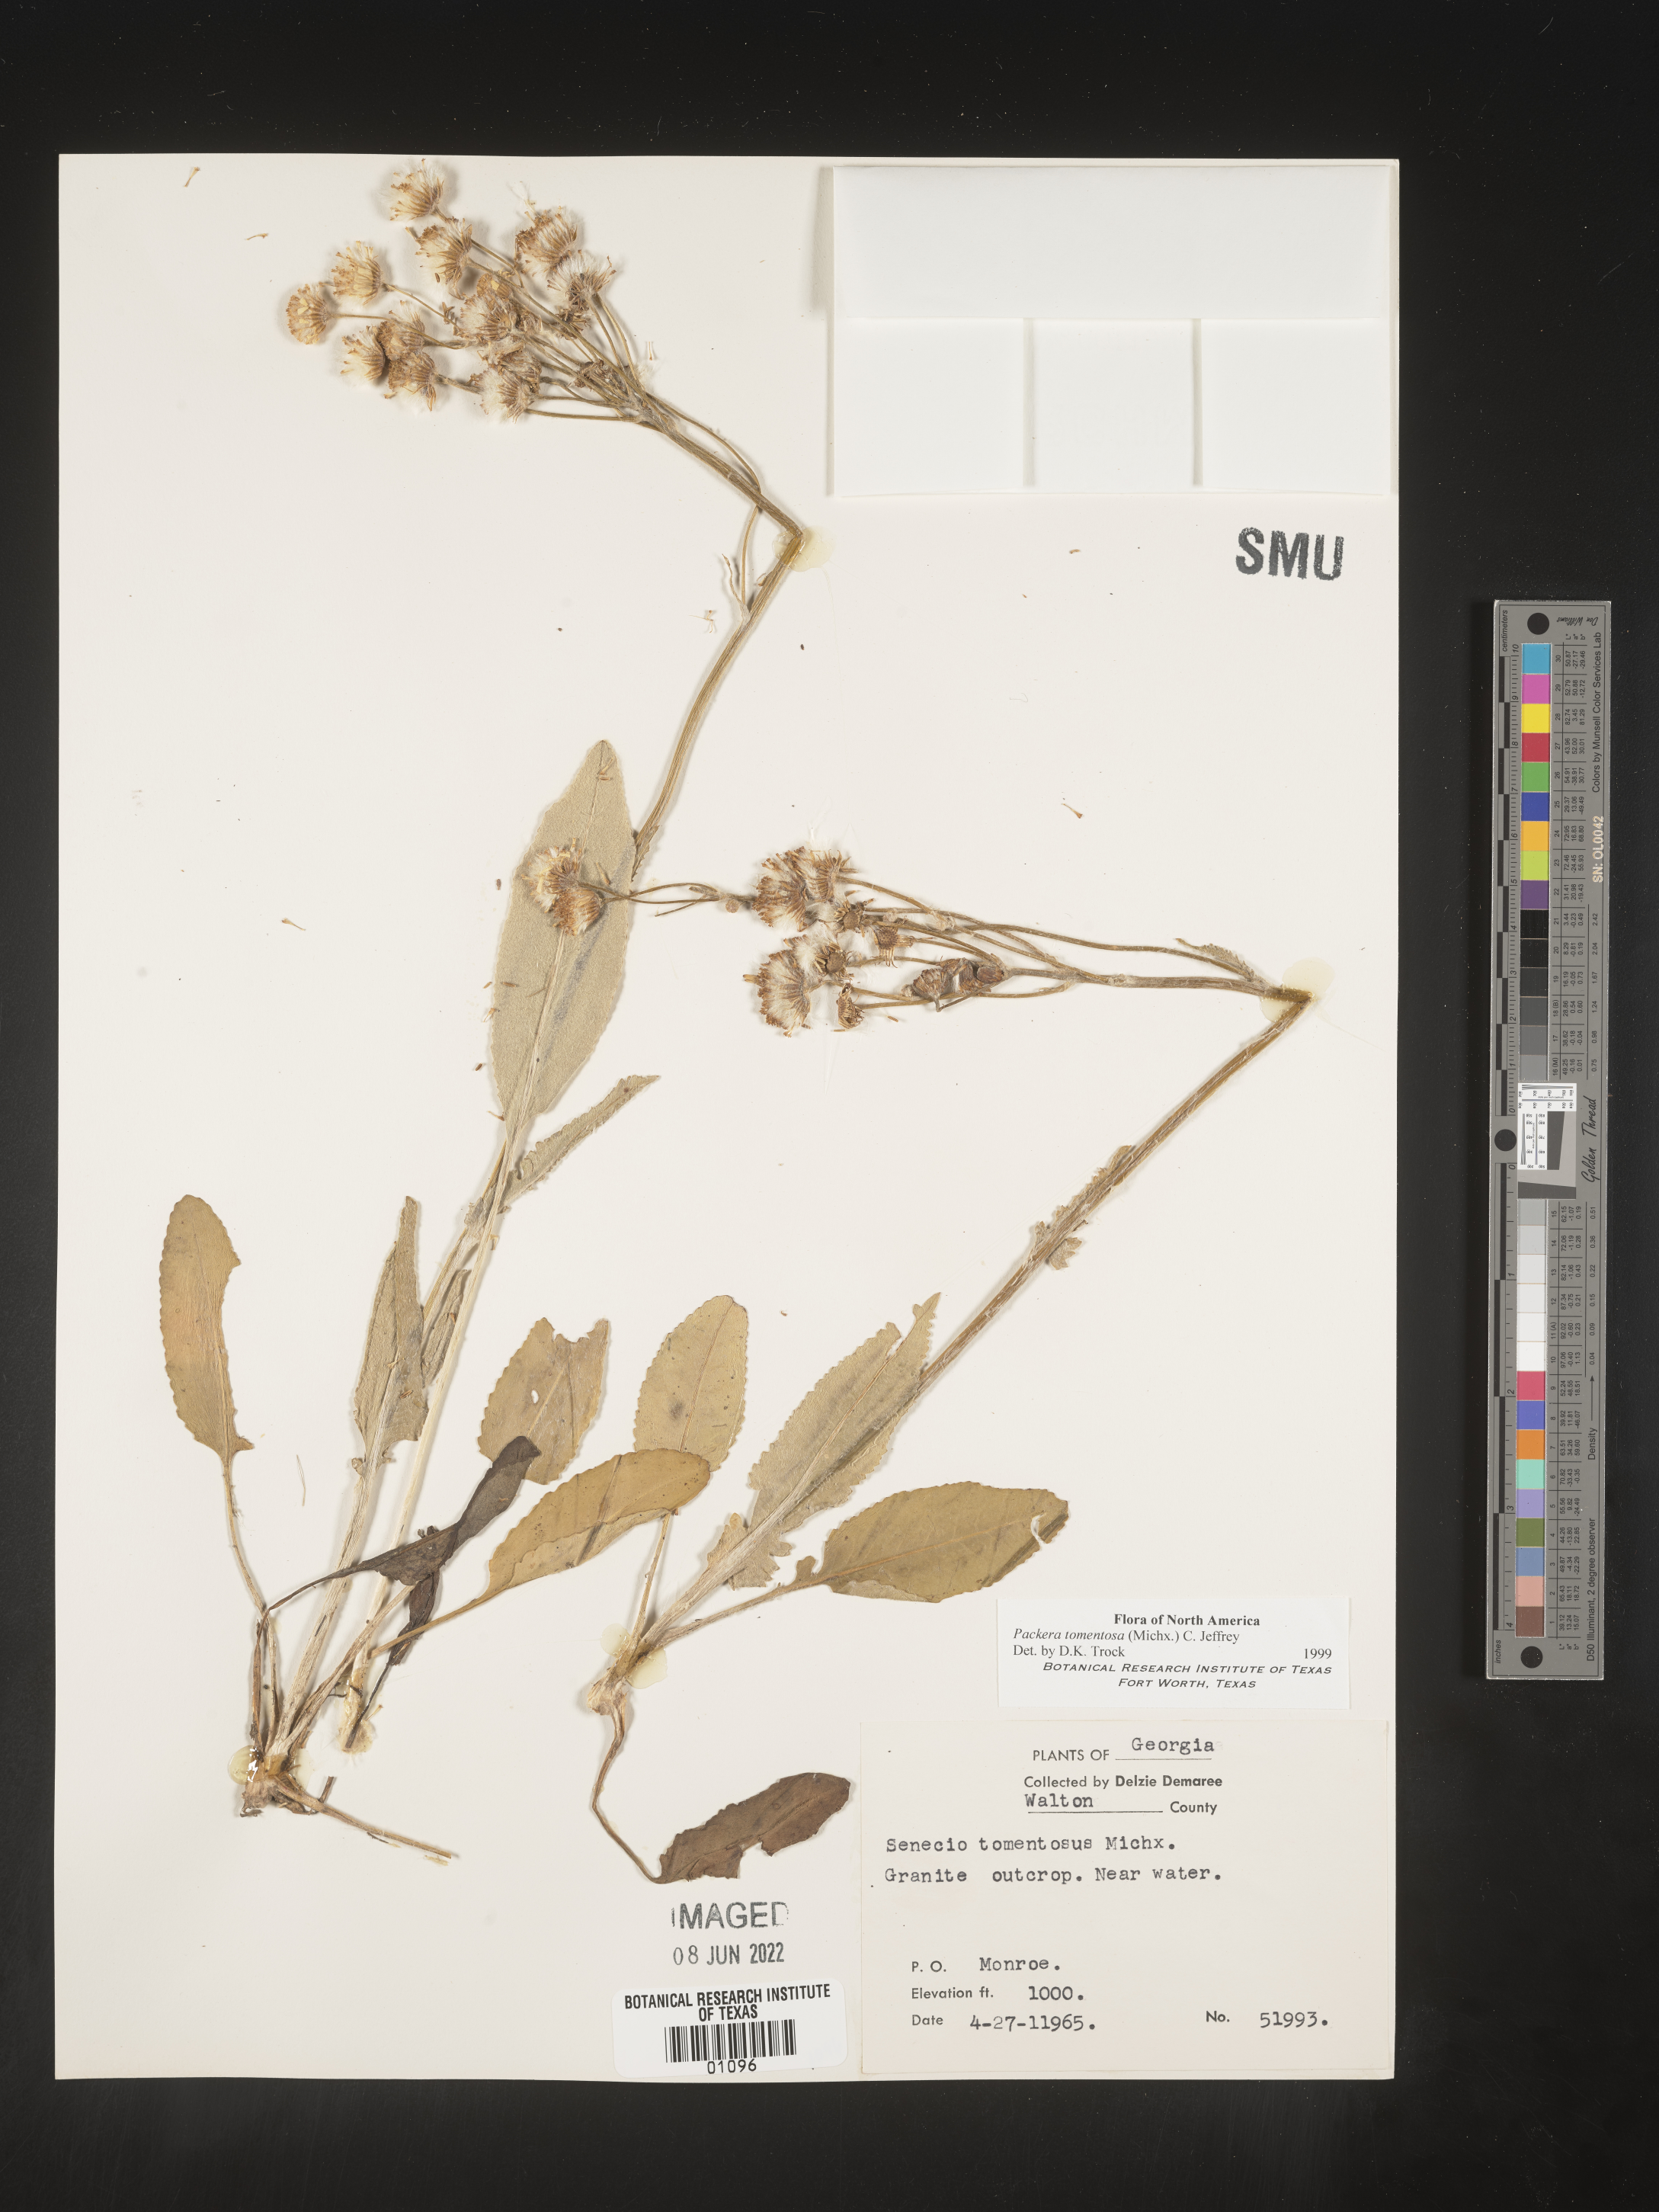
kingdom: Plantae
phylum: Tracheophyta
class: Magnoliopsida
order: Asterales
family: Asteraceae
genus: Packera
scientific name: Packera dubia
